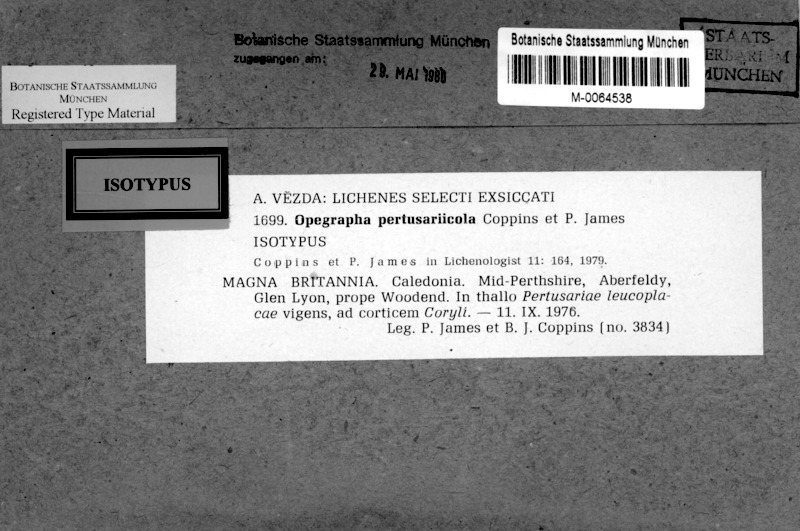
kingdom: Fungi
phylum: Ascomycota
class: Arthoniomycetes
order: Arthoniales
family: Opegraphaceae
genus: Opegrapha
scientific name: Opegrapha pertusariicola
